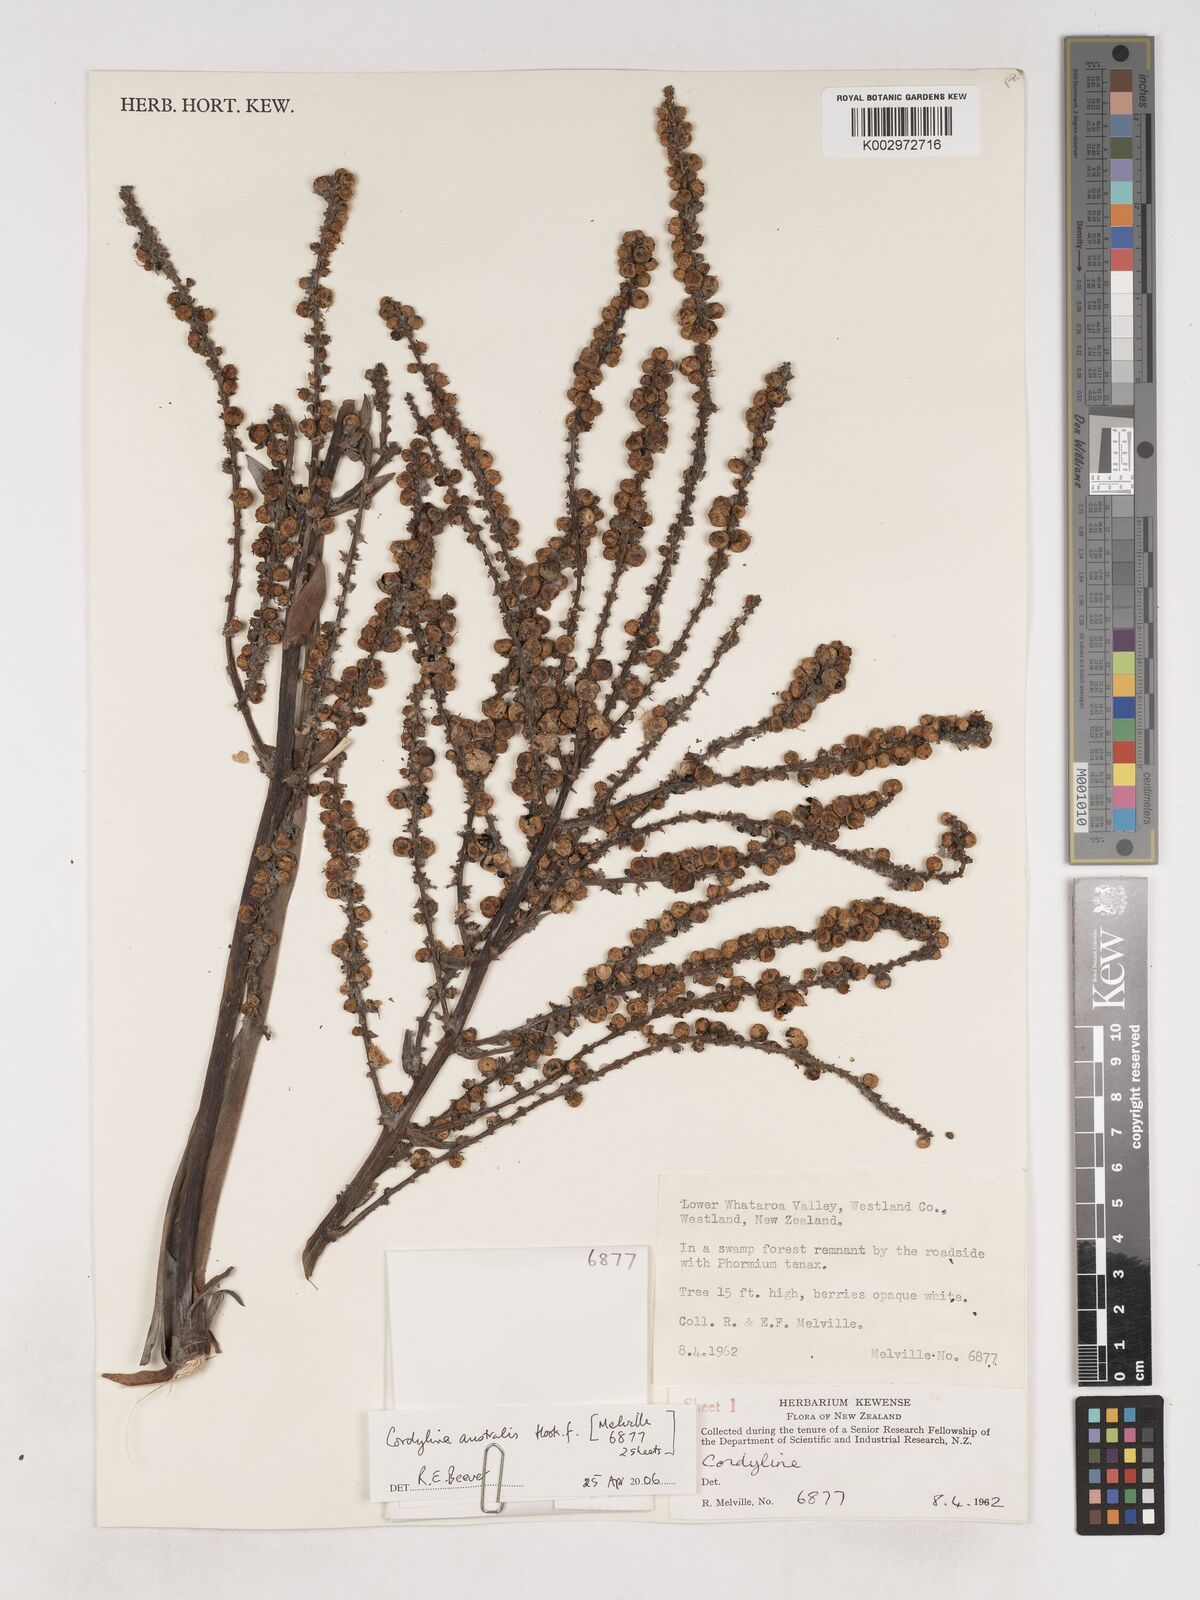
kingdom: Plantae
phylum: Tracheophyta
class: Liliopsida
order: Asparagales
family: Asparagaceae
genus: Cordyline
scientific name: Cordyline
